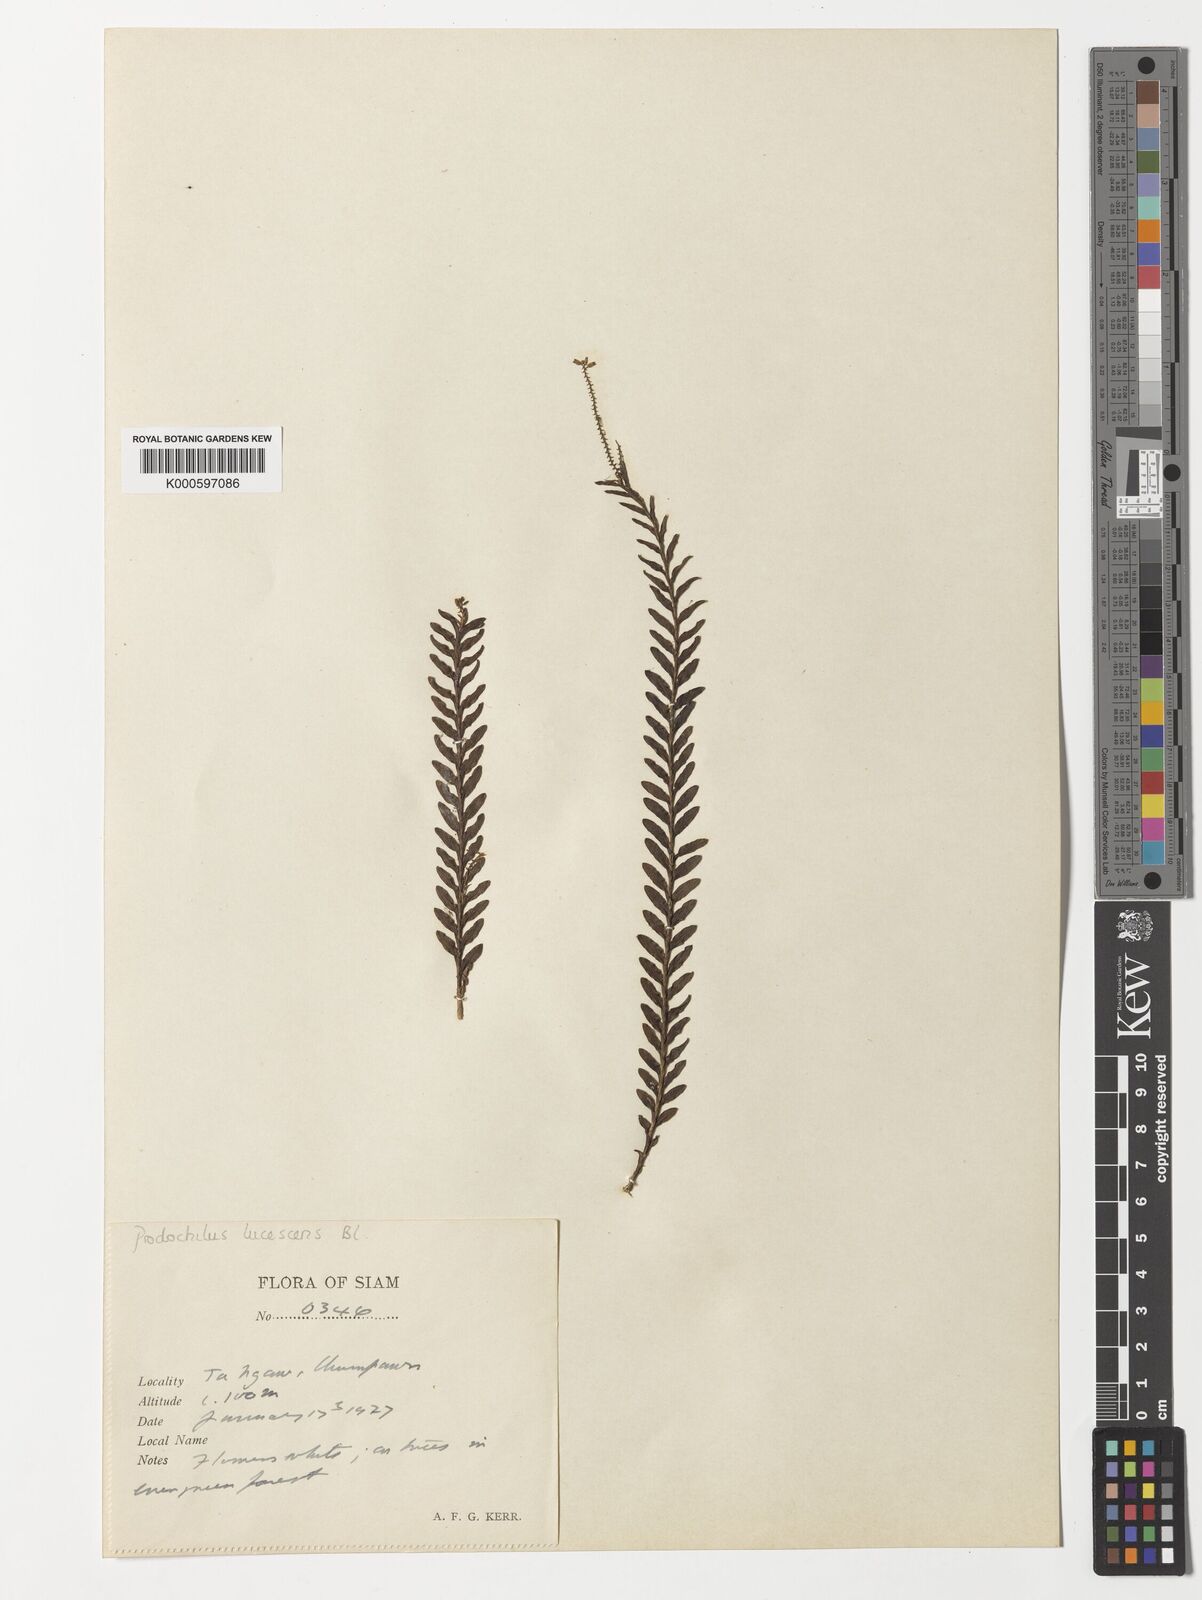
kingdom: Plantae
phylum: Tracheophyta
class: Liliopsida
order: Asparagales
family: Orchidaceae
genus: Podochilus
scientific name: Podochilus lucescens
